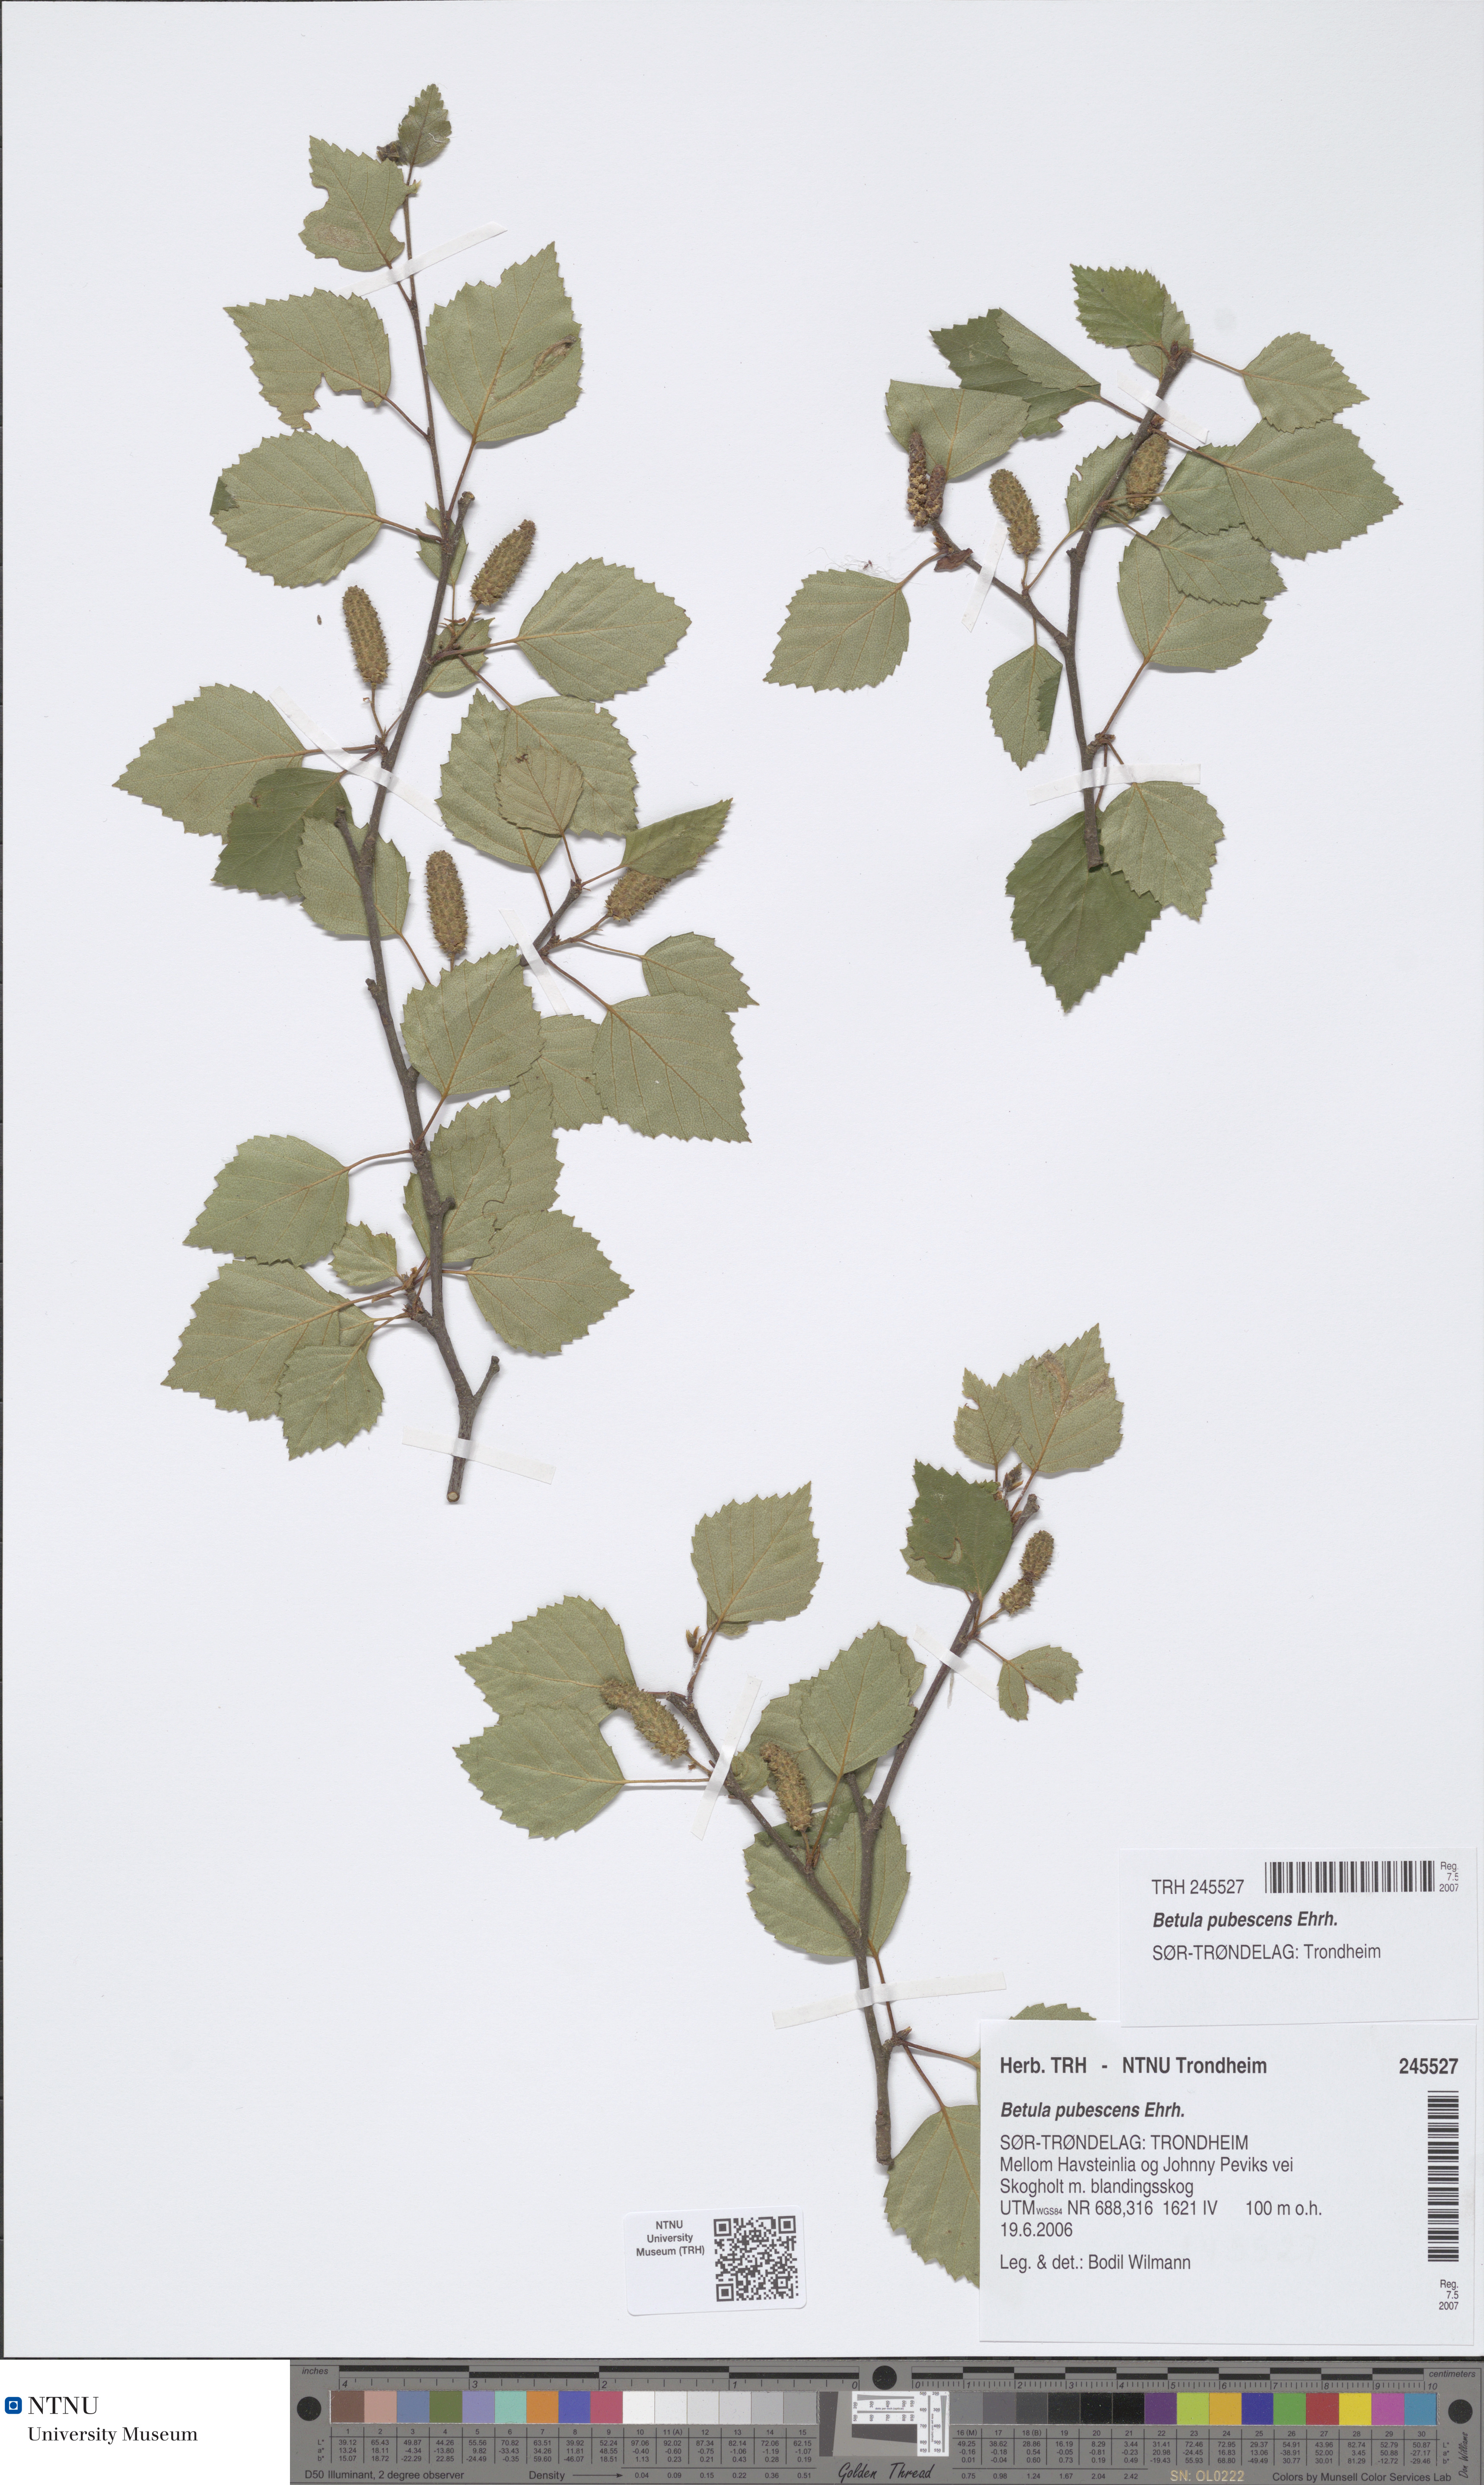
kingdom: Plantae
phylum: Tracheophyta
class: Magnoliopsida
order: Fagales
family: Betulaceae
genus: Betula
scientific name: Betula pubescens
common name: Downy birch
